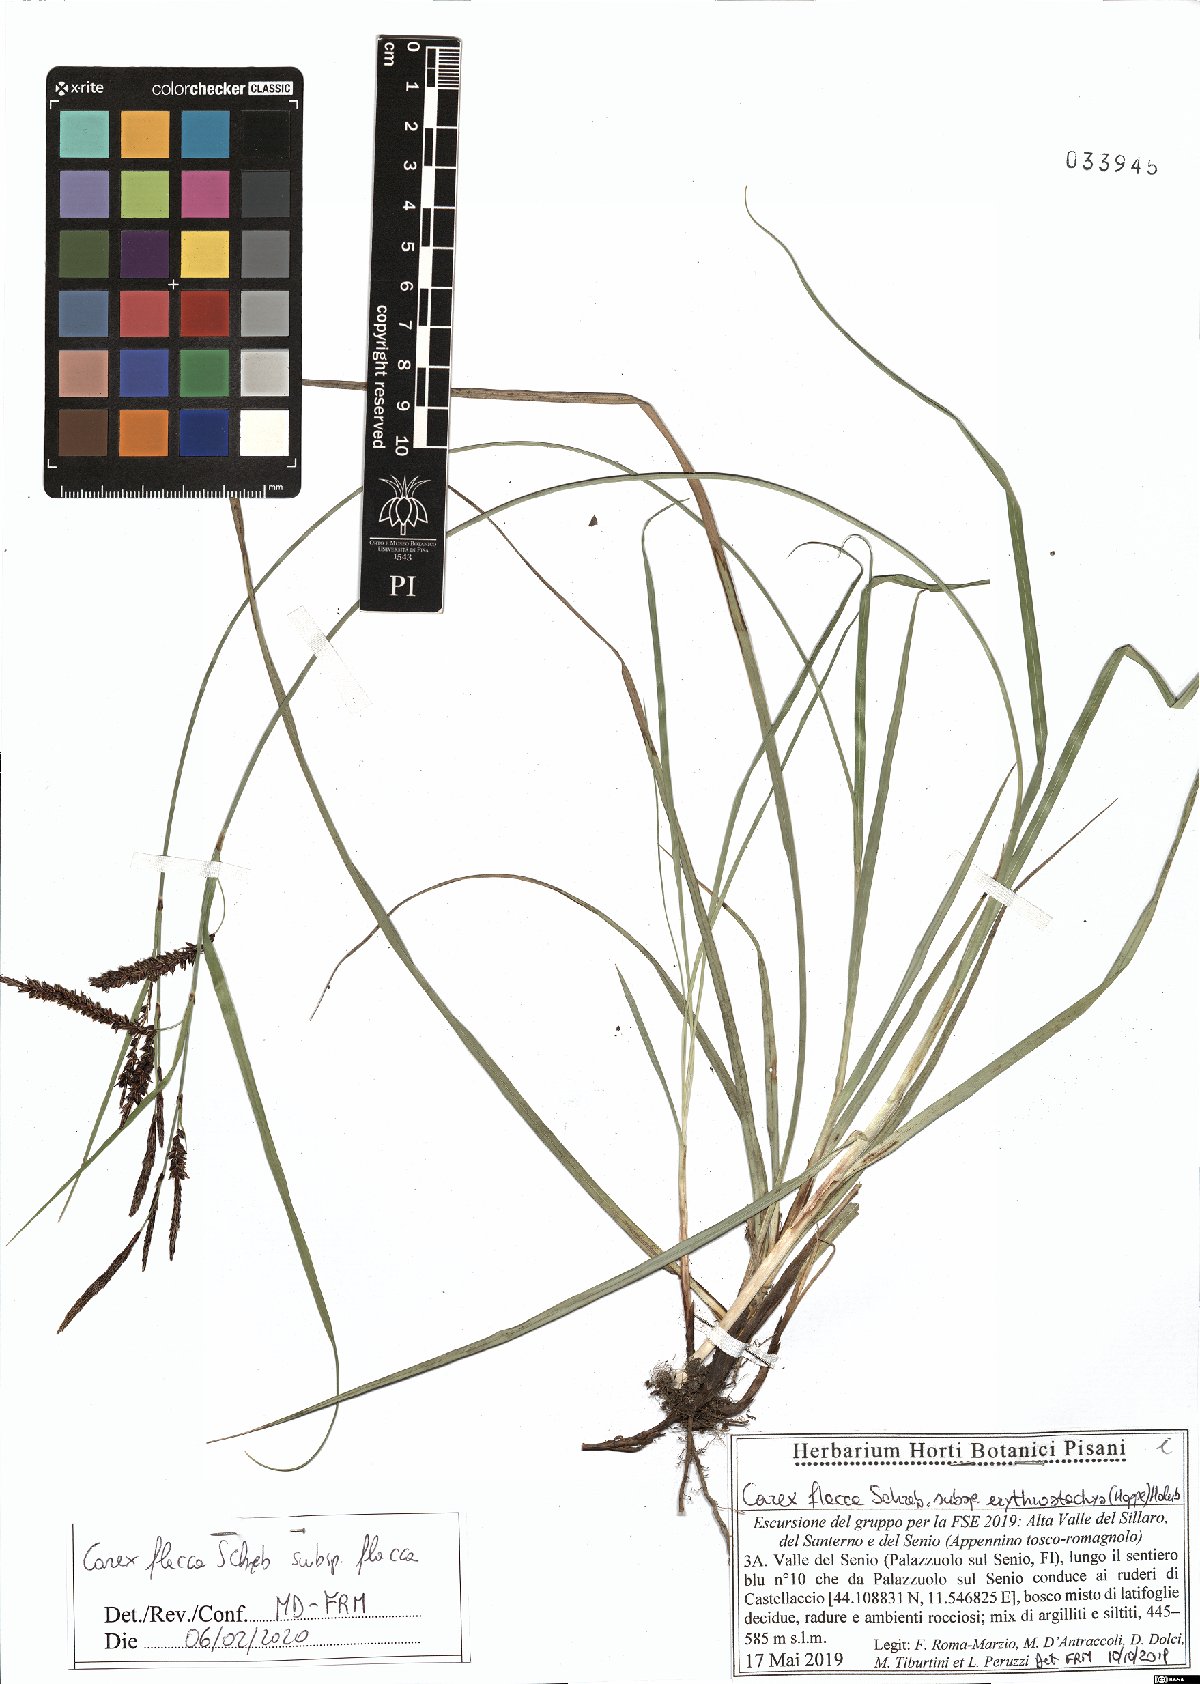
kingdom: Plantae
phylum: Tracheophyta
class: Liliopsida
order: Poales
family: Cyperaceae
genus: Carex
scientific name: Carex flacca
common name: Glaucous sedge
